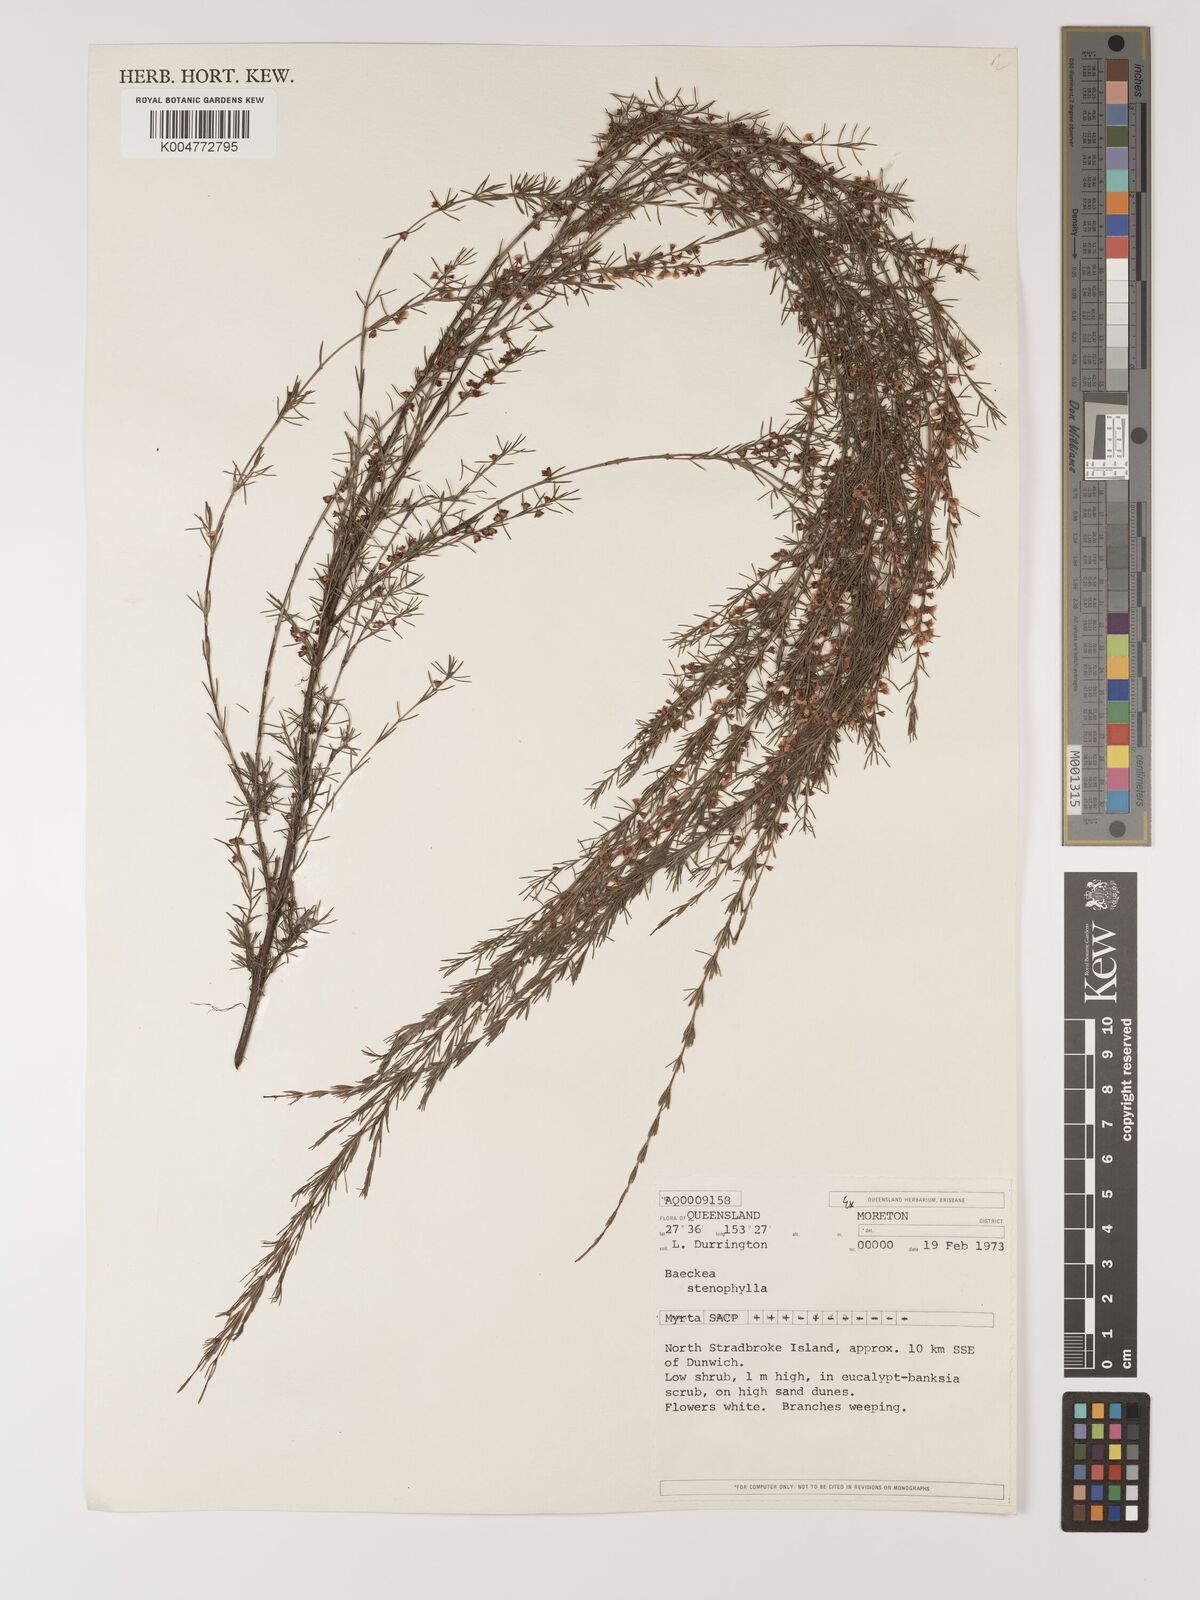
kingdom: Plantae
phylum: Tracheophyta
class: Magnoliopsida
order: Myrtales
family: Myrtaceae
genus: Baeckea
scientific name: Baeckea frutescens
